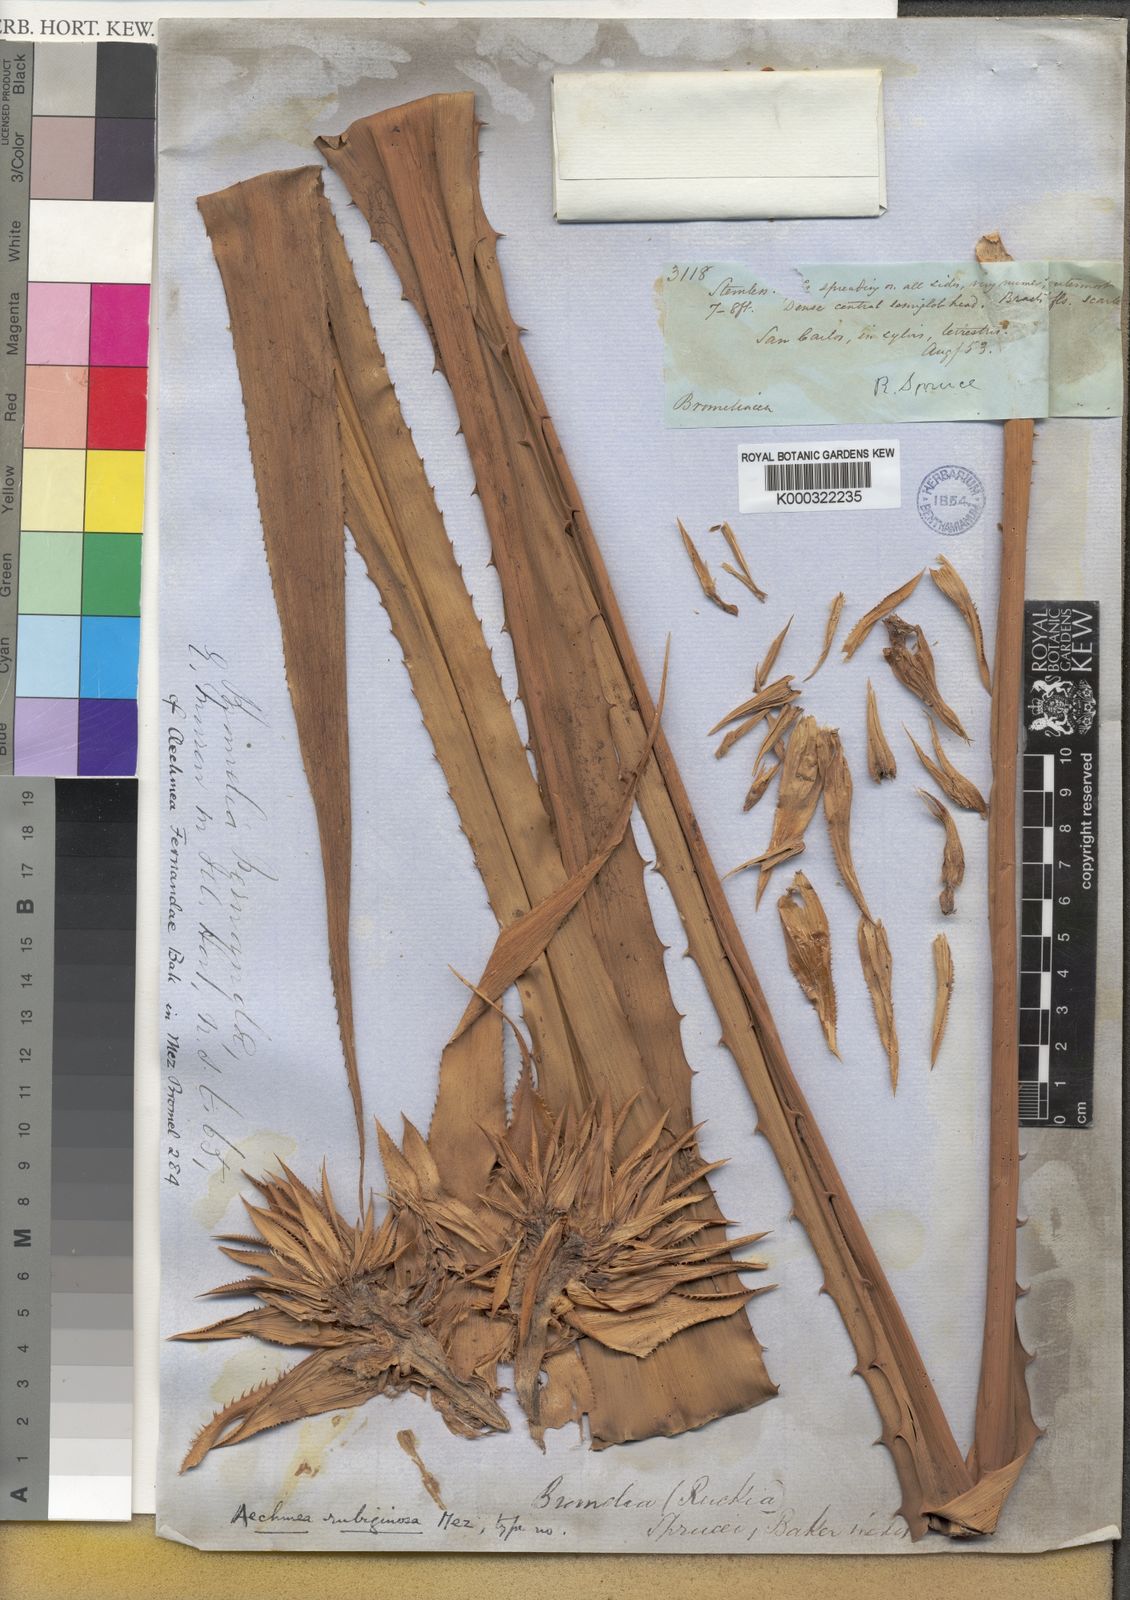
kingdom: Plantae
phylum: Tracheophyta
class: Liliopsida
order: Poales
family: Bromeliaceae
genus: Aechmea
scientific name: Aechmea rubiginosa
